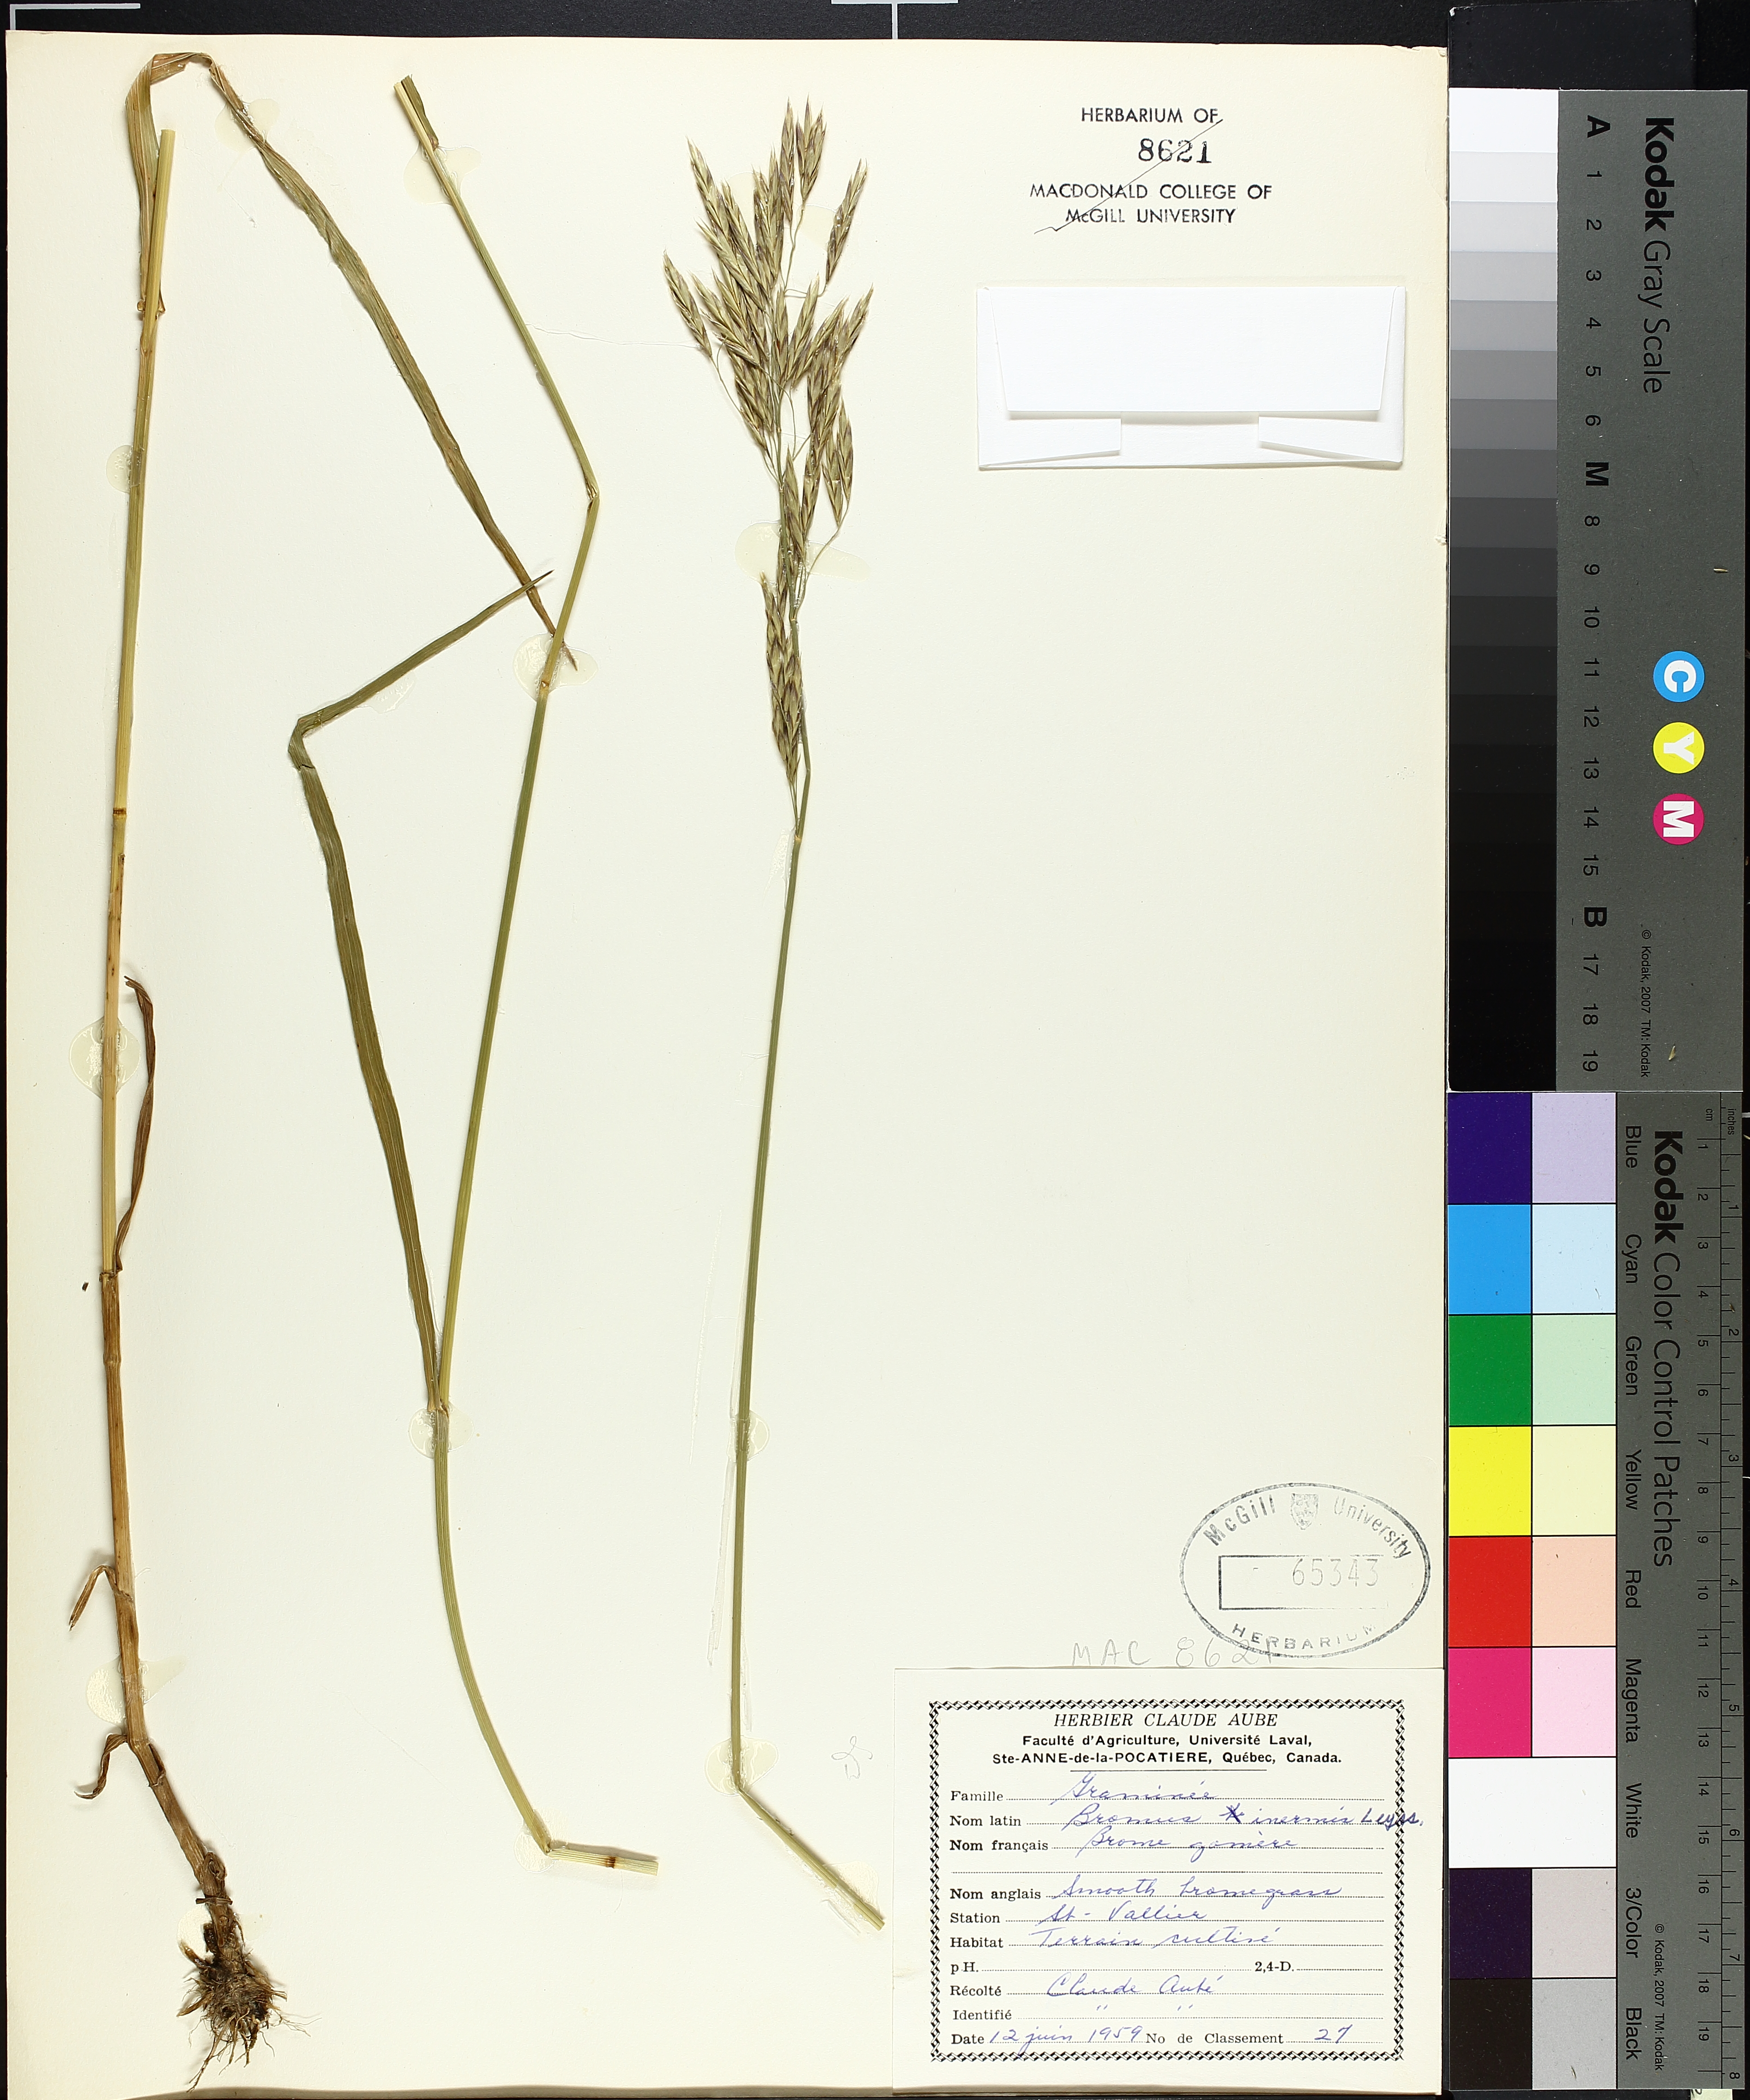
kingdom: Plantae
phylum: Tracheophyta
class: Liliopsida
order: Poales
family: Typhaceae
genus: Sparganium
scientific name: Sparganium emersum
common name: Unbranched bur-reed
